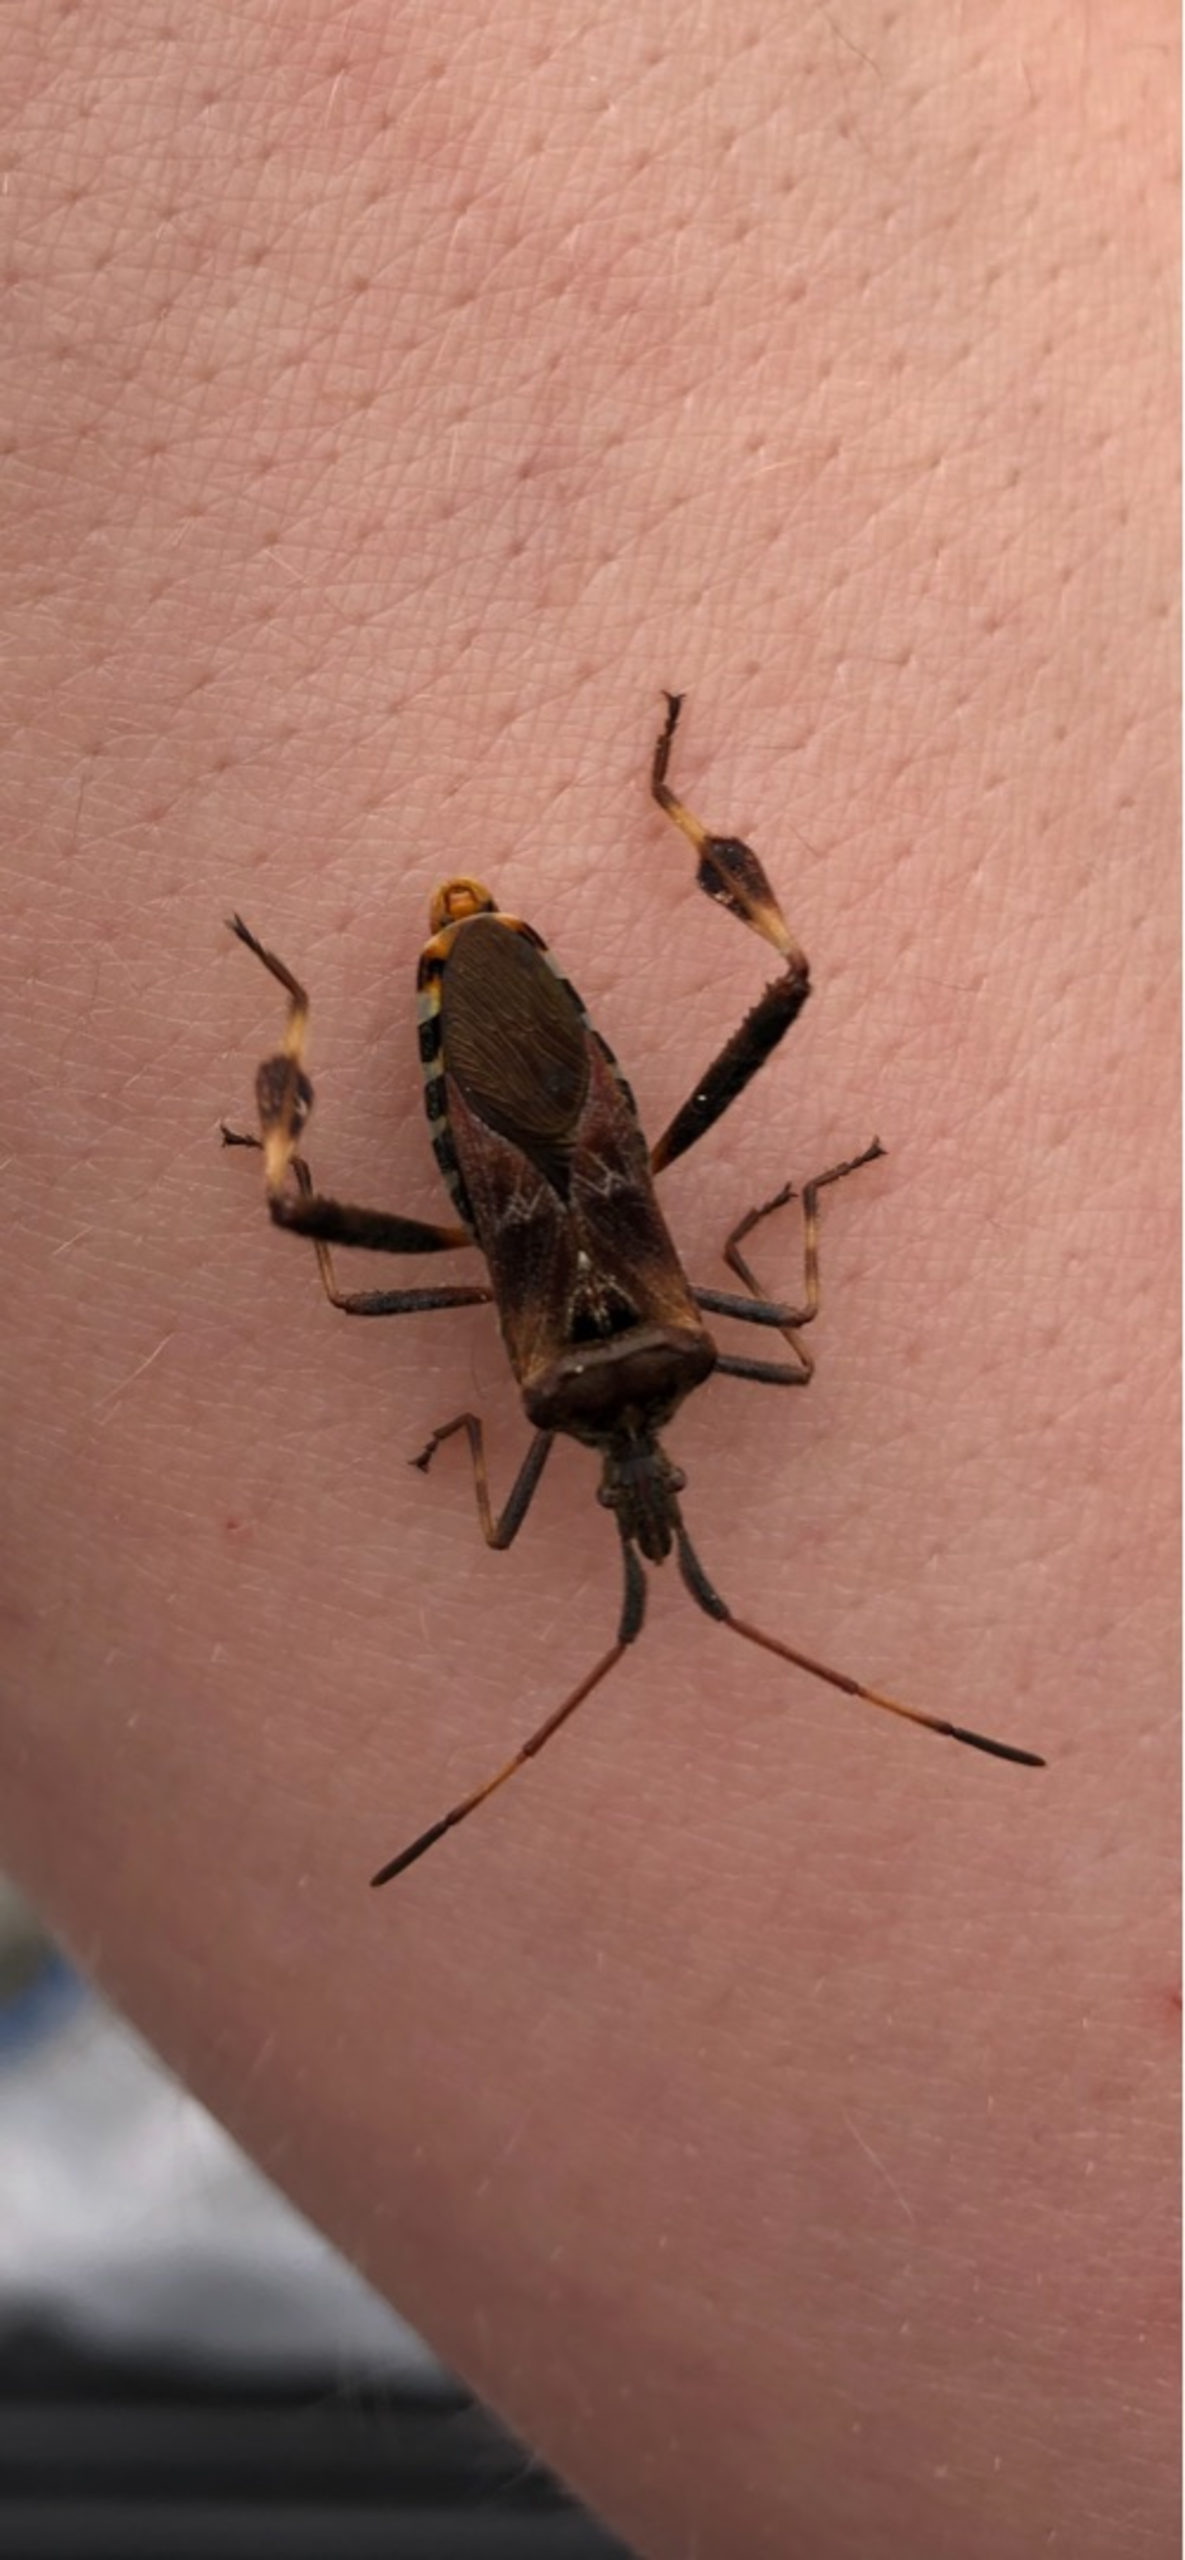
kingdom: Animalia
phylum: Arthropoda
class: Insecta
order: Hemiptera
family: Coreidae
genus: Leptoglossus
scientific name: Leptoglossus occidentalis
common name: Amerikansk fyrretæge
